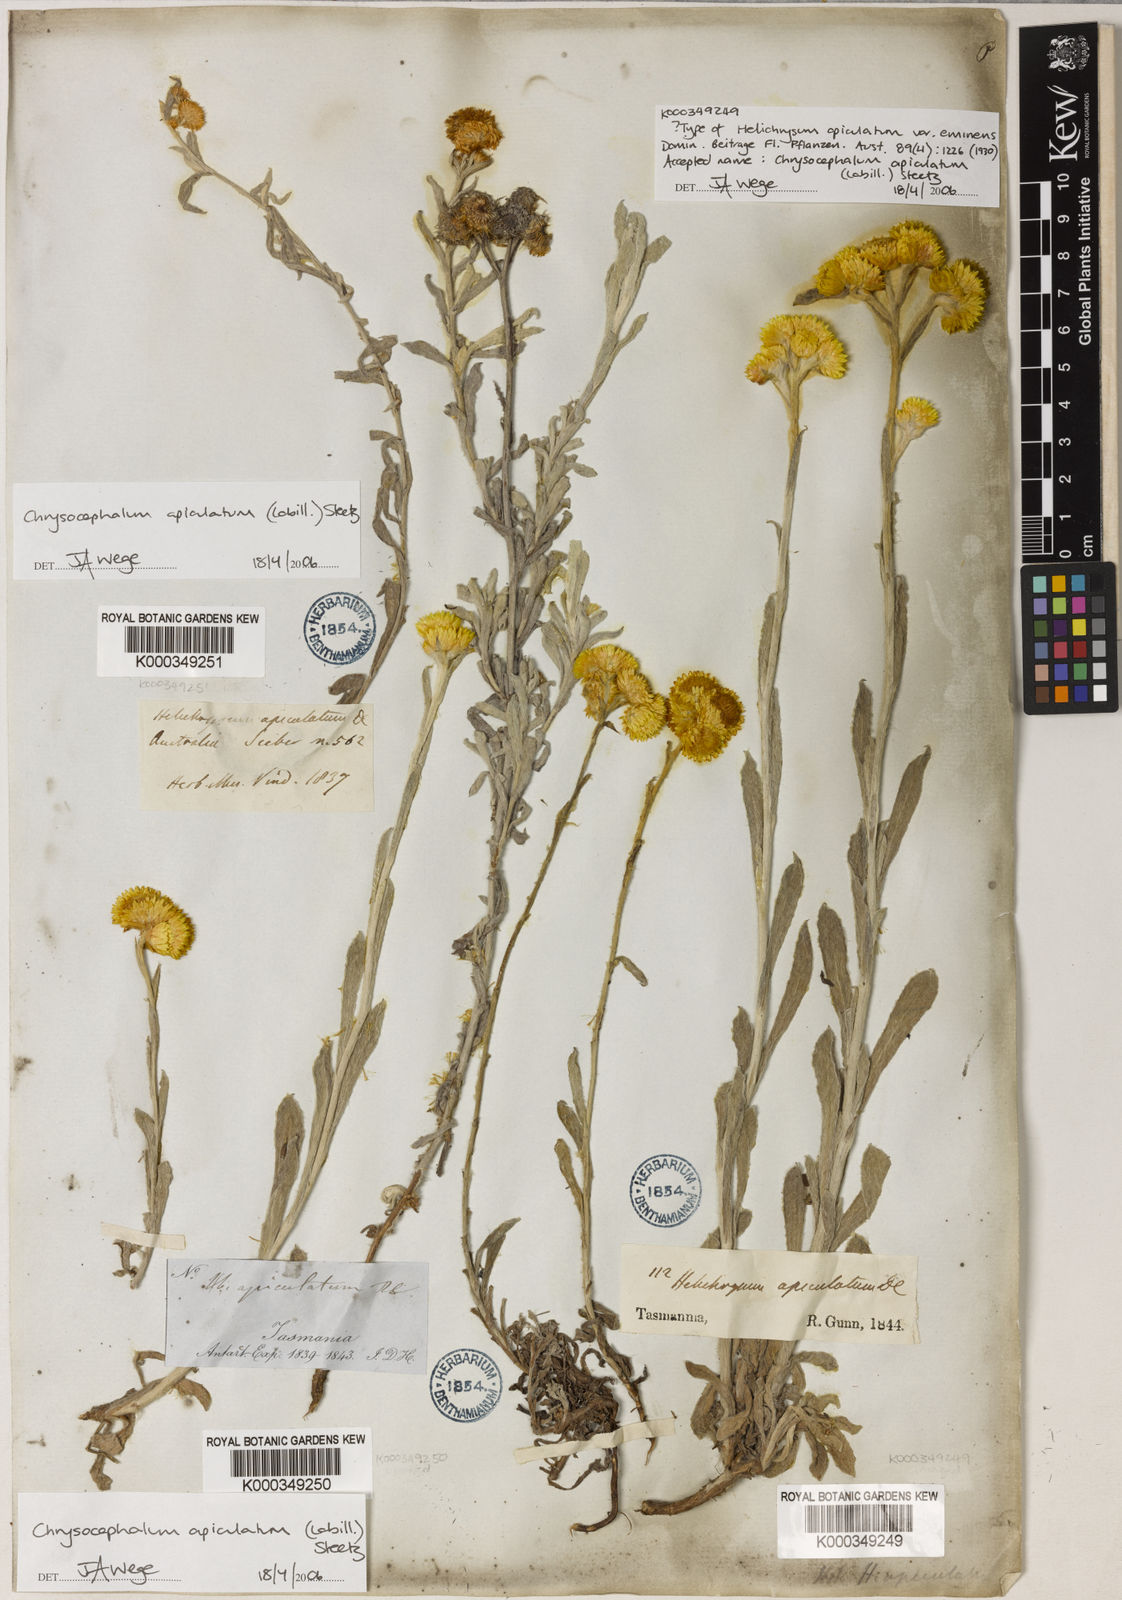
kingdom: Plantae
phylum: Tracheophyta
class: Magnoliopsida
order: Asterales
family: Asteraceae
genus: Chrysocephalum
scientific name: Chrysocephalum apiculatum
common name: Common everlasting
